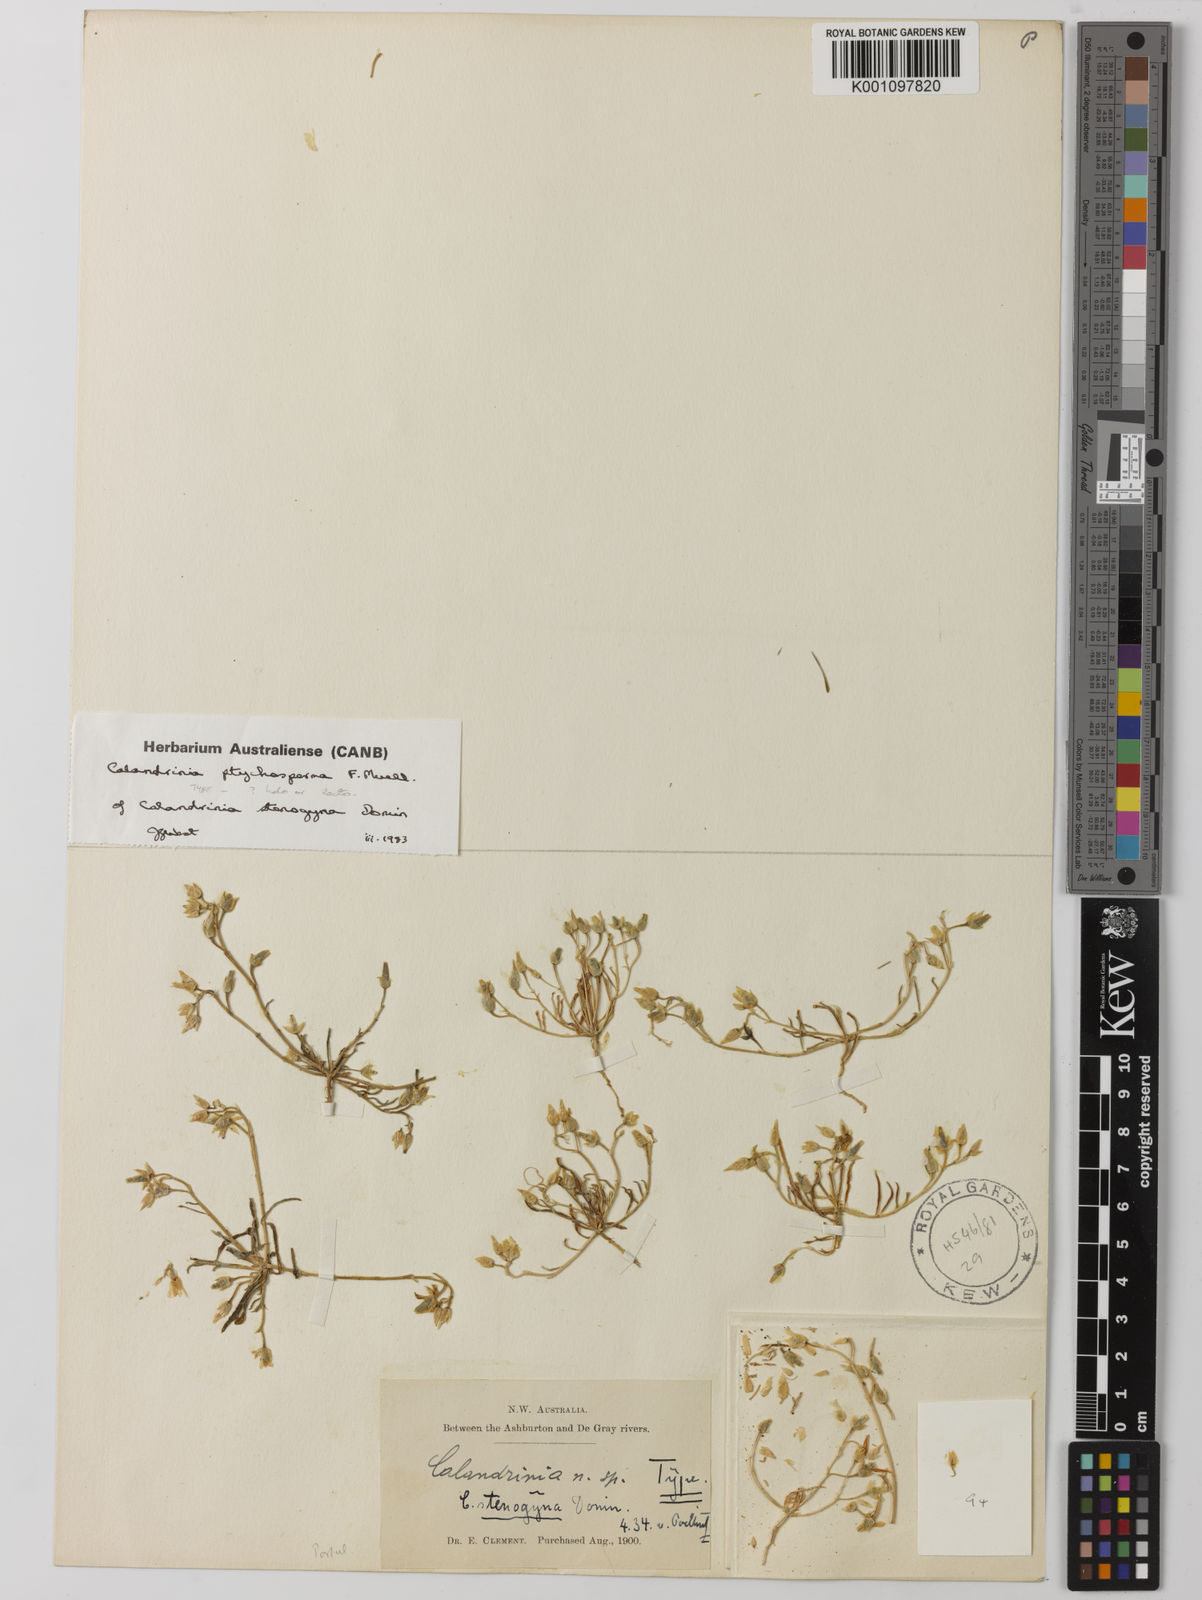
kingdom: Plantae
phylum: Tracheophyta
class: Magnoliopsida
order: Caryophyllales
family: Portulacaceae
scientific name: Portulacaceae
